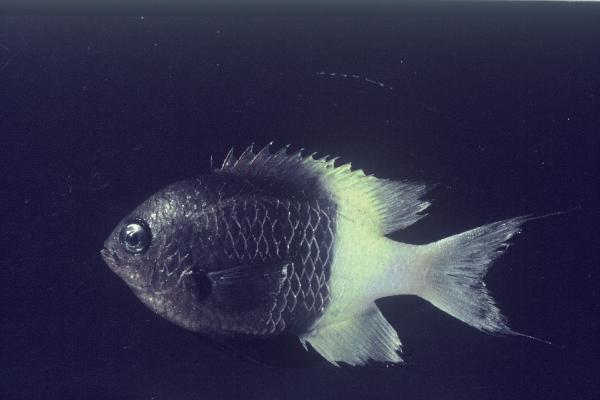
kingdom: Animalia
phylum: Chordata
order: Perciformes
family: Pomacentridae
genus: Chromis
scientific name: Chromis dimidiata
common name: Half-and-half chromis
